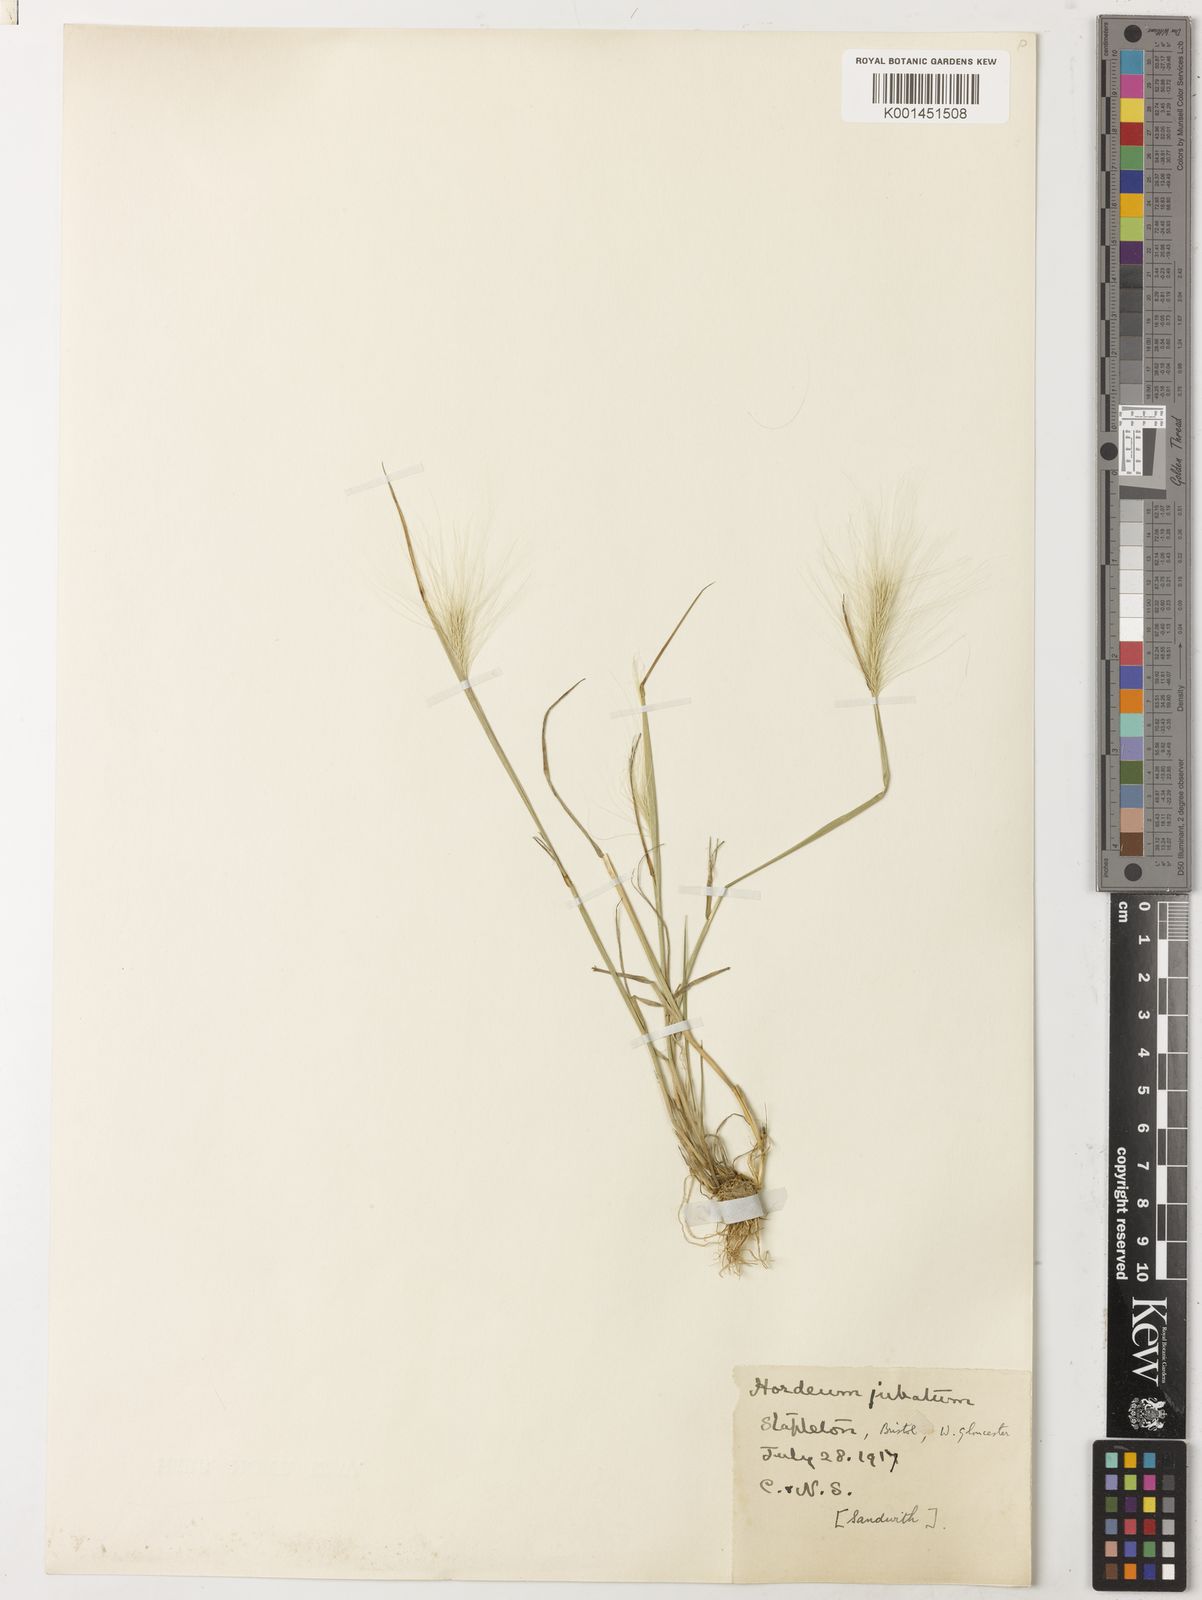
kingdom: Plantae
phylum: Tracheophyta
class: Liliopsida
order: Poales
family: Poaceae
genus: Hordeum
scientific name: Hordeum jubatum
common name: Foxtail barley
